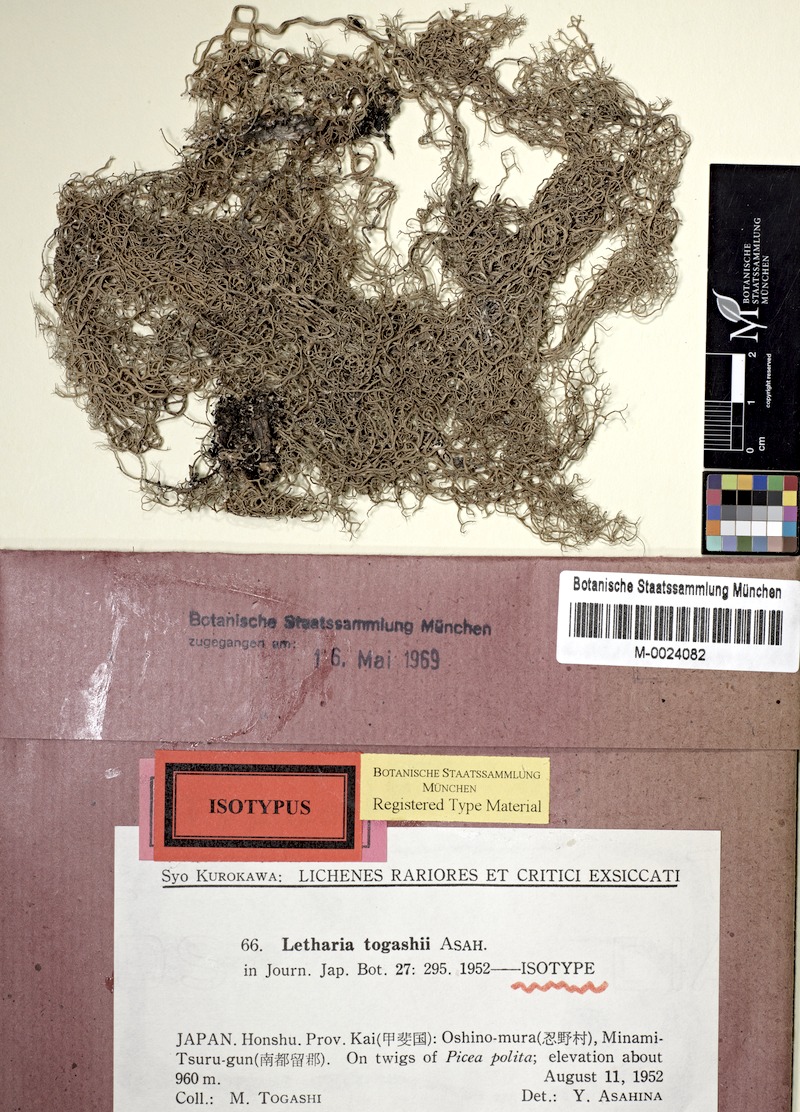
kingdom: Fungi
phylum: Ascomycota
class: Lecanoromycetes
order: Lecanorales
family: Parmeliaceae
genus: Lethariella
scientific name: Lethariella togashii
